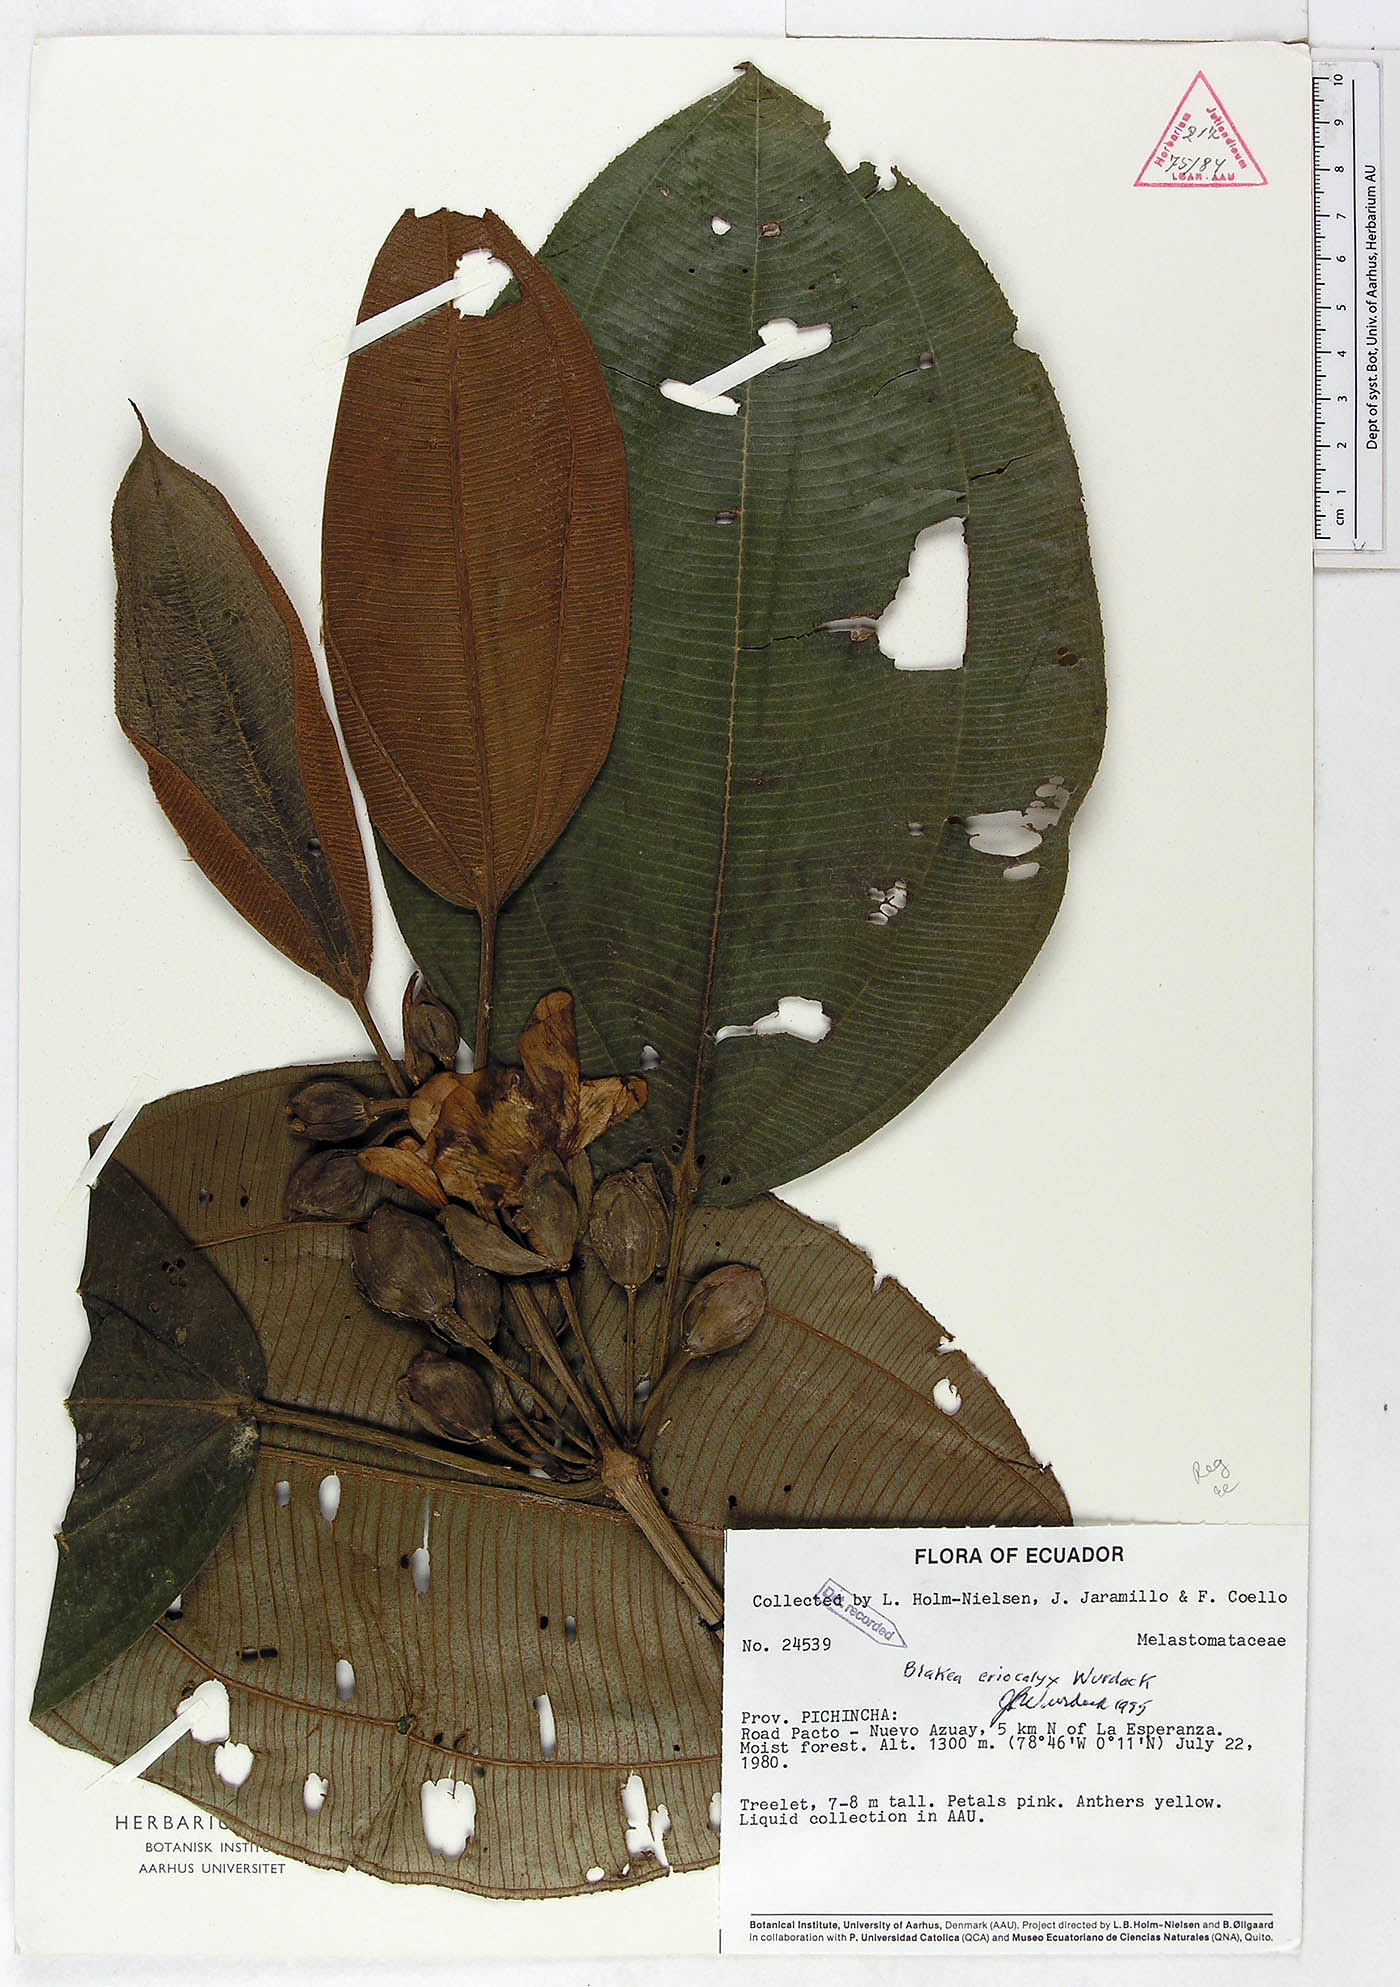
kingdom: Plantae
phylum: Tracheophyta
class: Magnoliopsida
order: Myrtales
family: Melastomataceae
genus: Blakea
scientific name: Blakea eriocalyx
